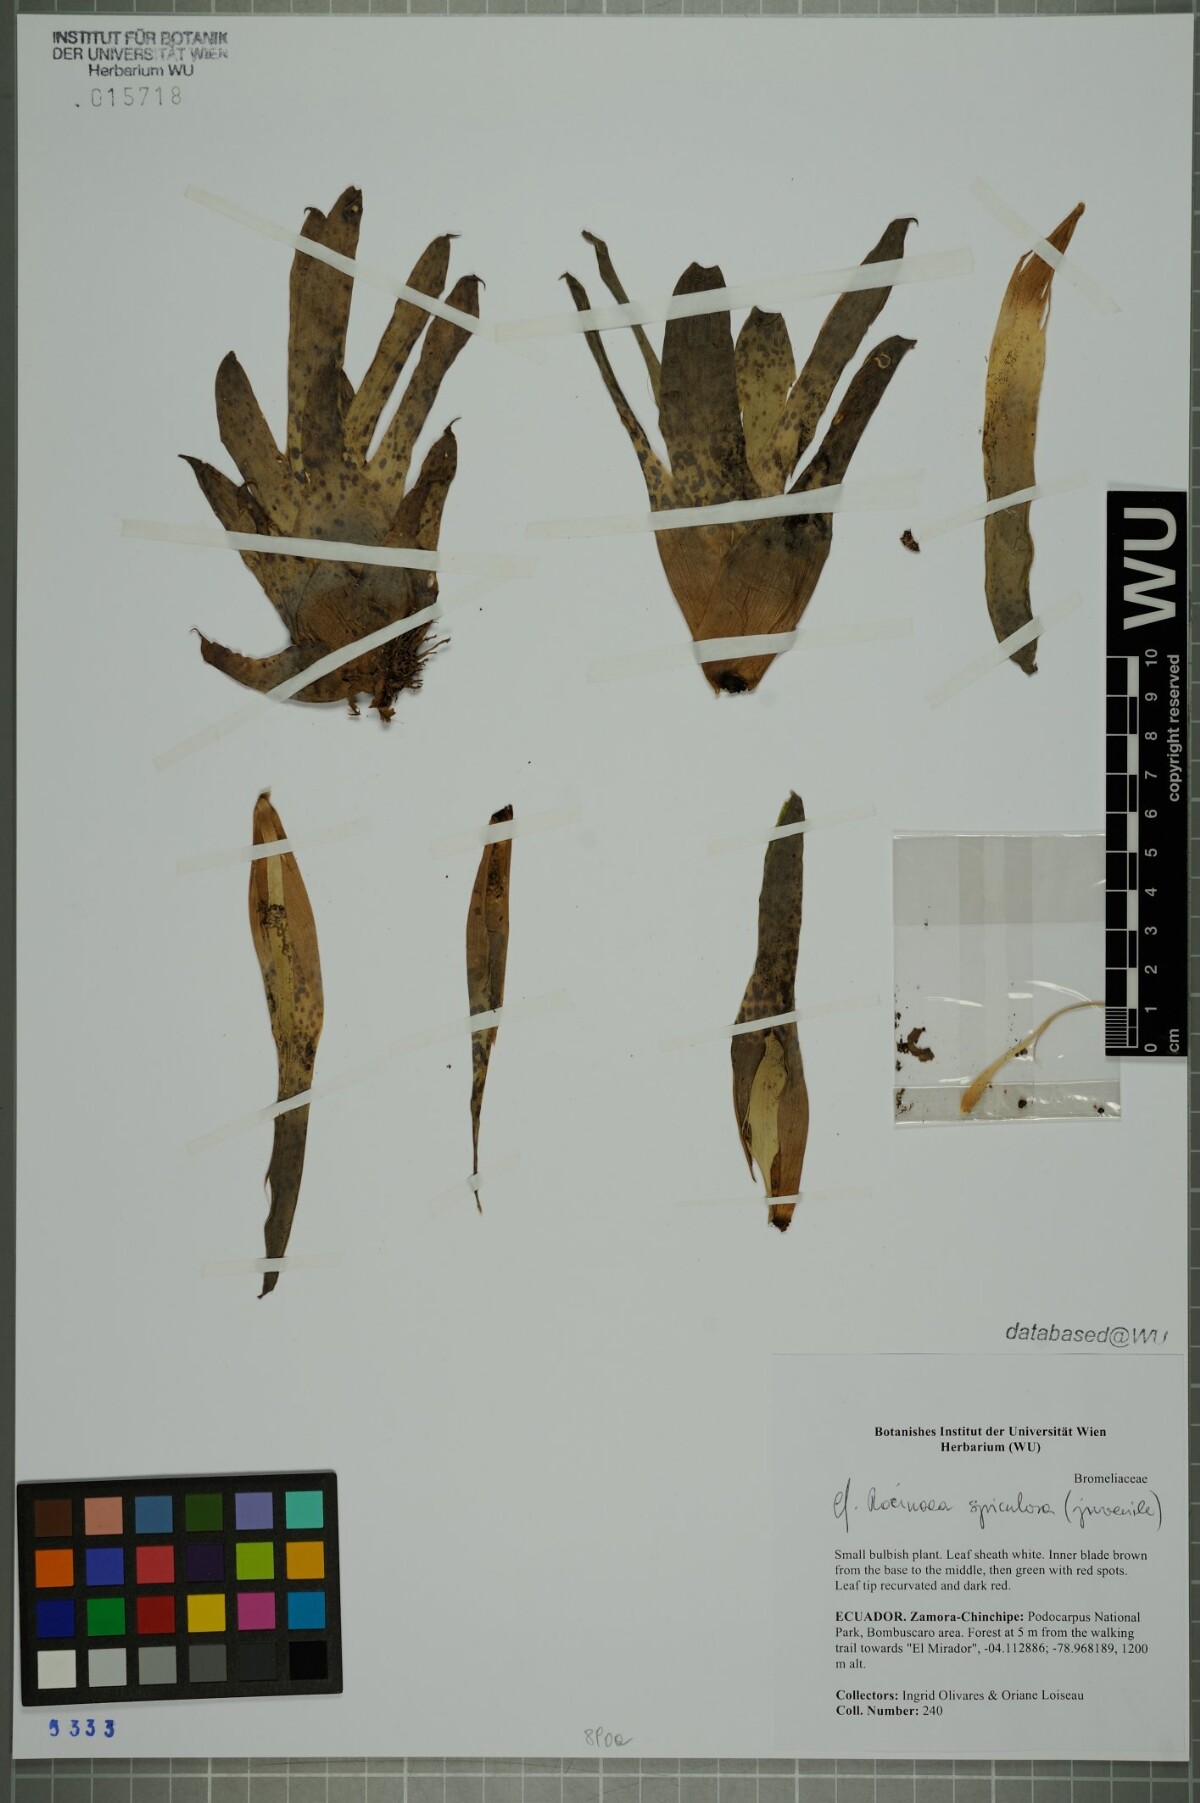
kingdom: Plantae
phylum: Tracheophyta
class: Liliopsida
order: Poales
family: Bromeliaceae
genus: Racinaea
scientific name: Racinaea spiculosa
